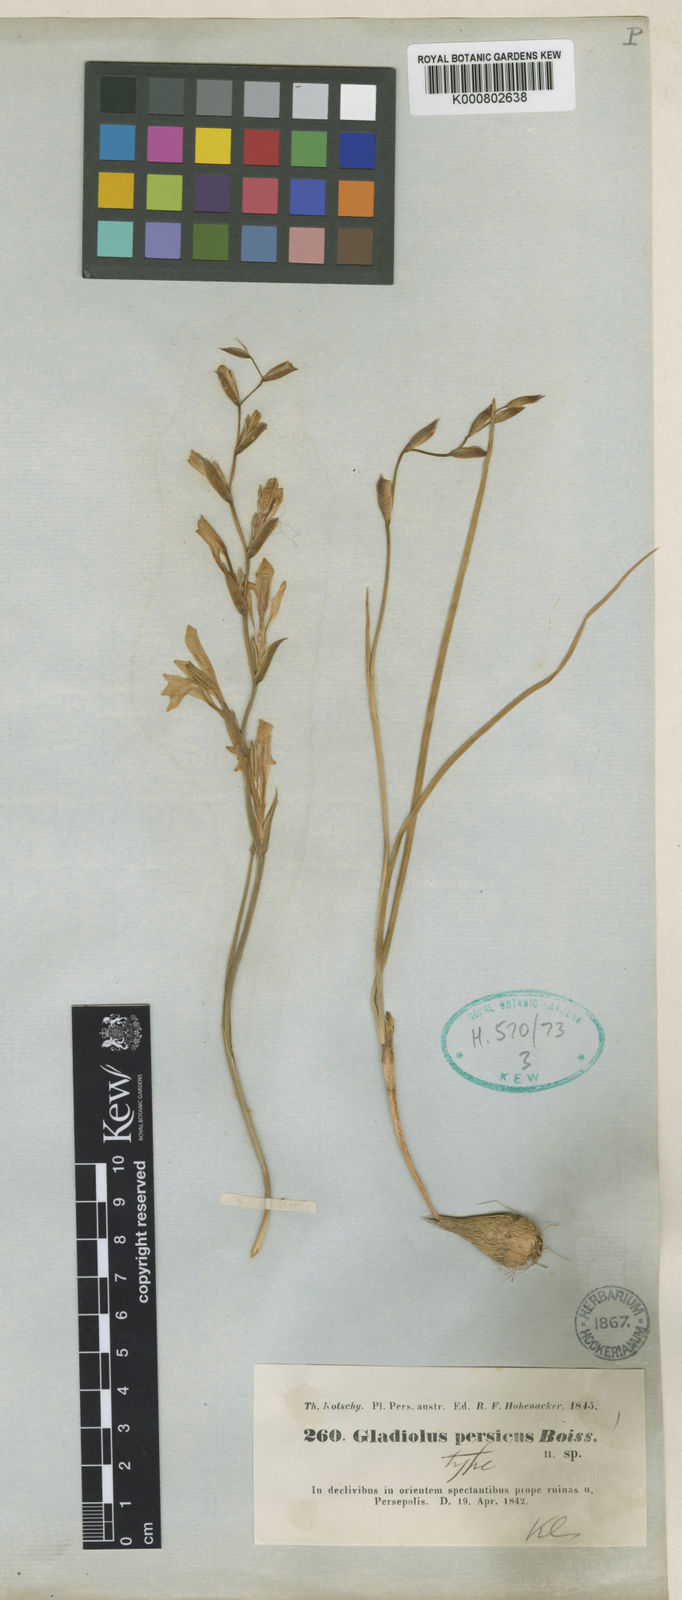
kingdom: Plantae
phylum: Tracheophyta
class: Liliopsida
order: Asparagales
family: Iridaceae
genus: Gladiolus
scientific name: Gladiolus persicus
